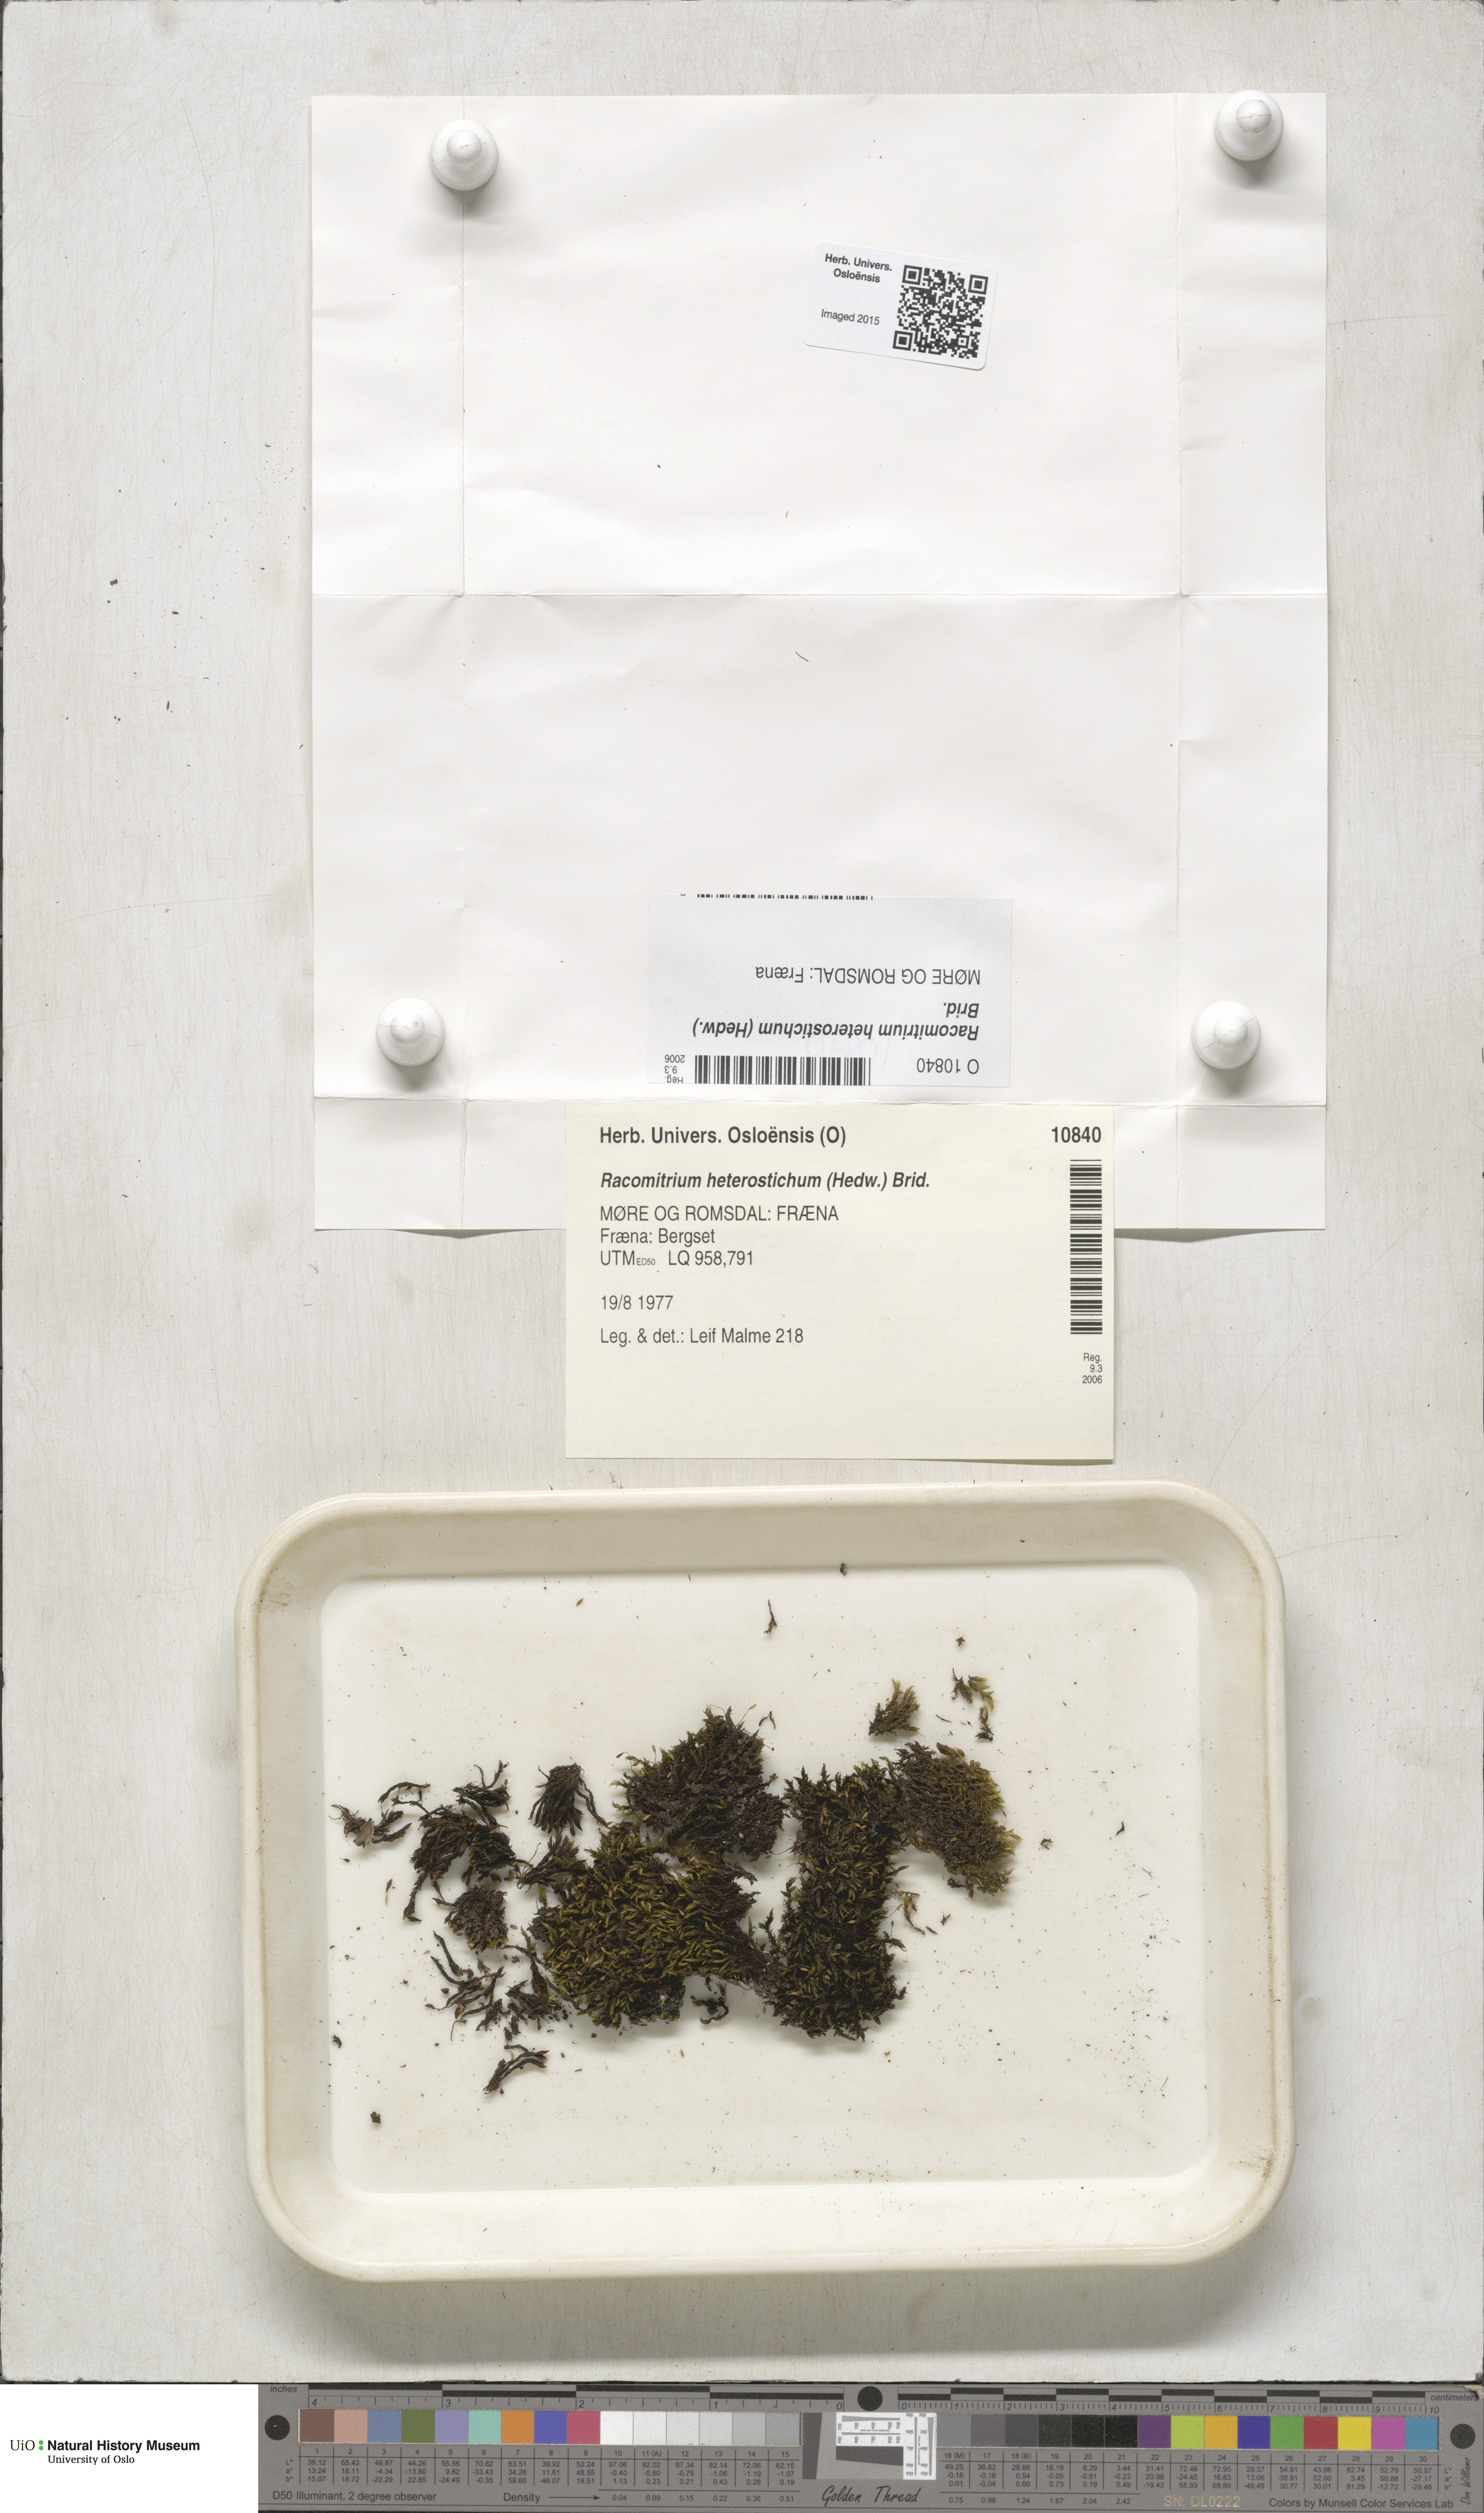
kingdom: Plantae
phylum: Bryophyta
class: Bryopsida
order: Grimmiales
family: Grimmiaceae
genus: Bucklandiella
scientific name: Bucklandiella heterosticha
